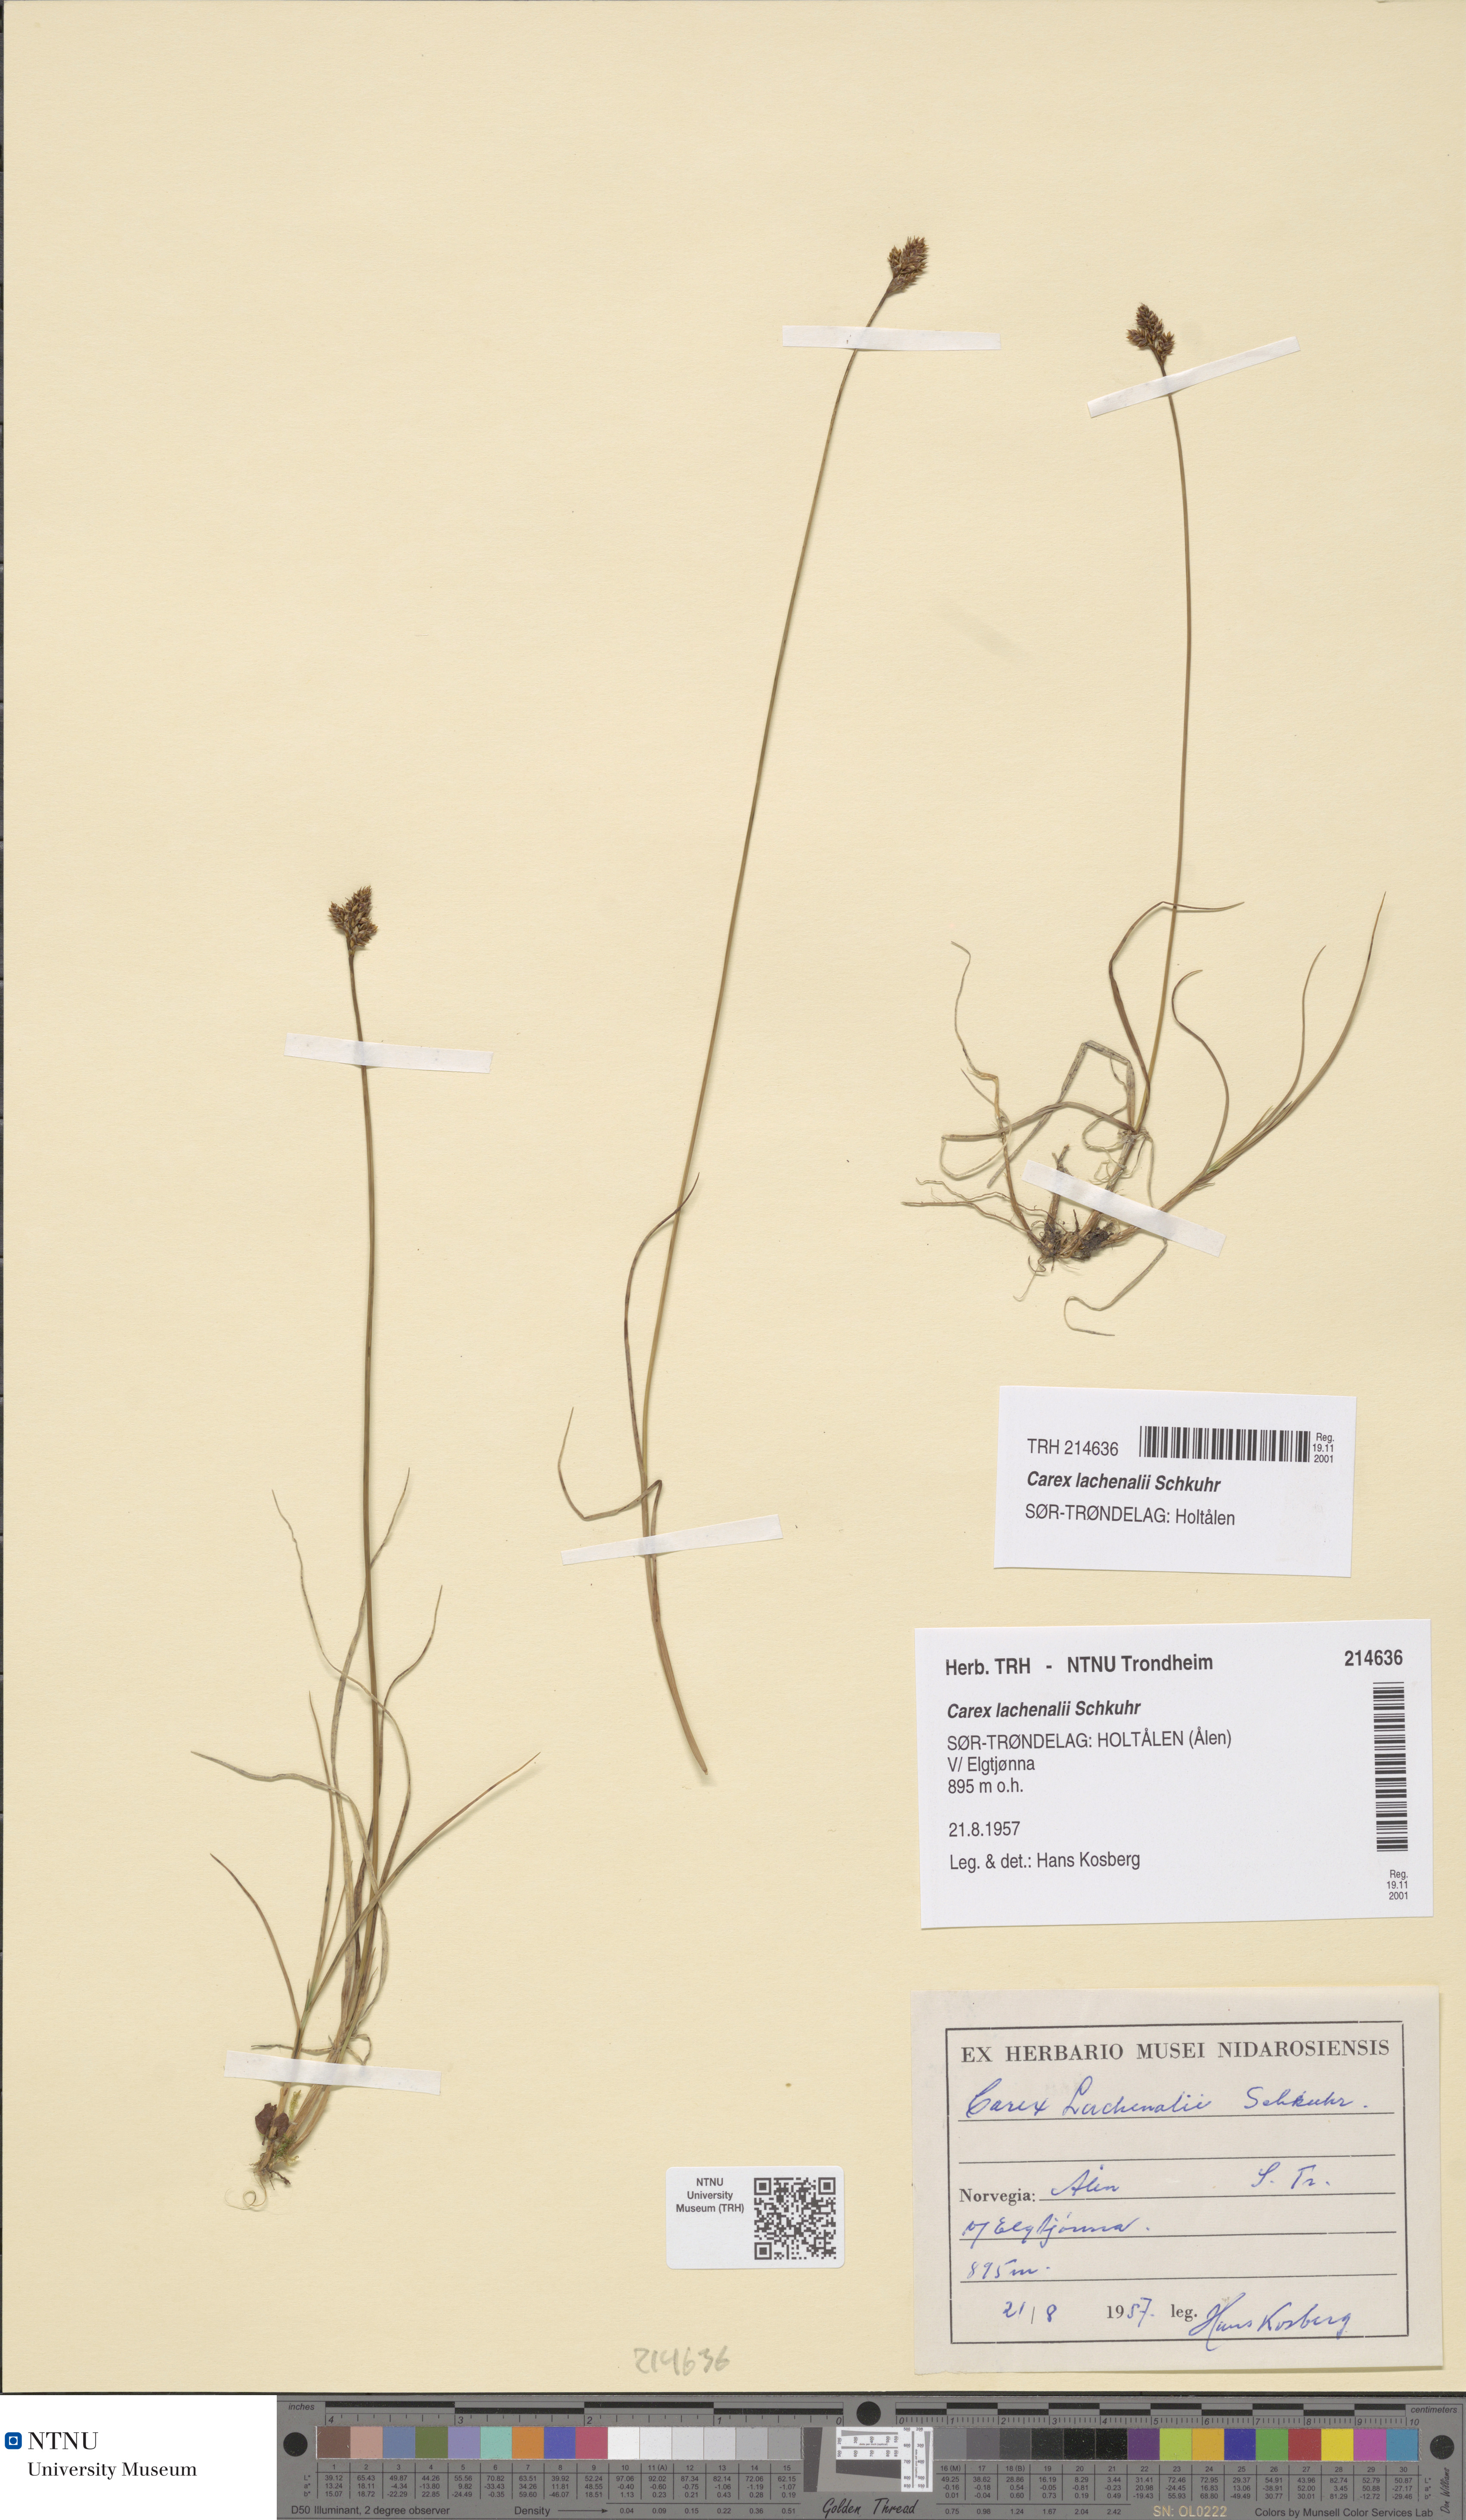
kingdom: Plantae
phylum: Tracheophyta
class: Liliopsida
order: Poales
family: Cyperaceae
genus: Carex
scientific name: Carex lachenalii
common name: Hare's-foot sedge
